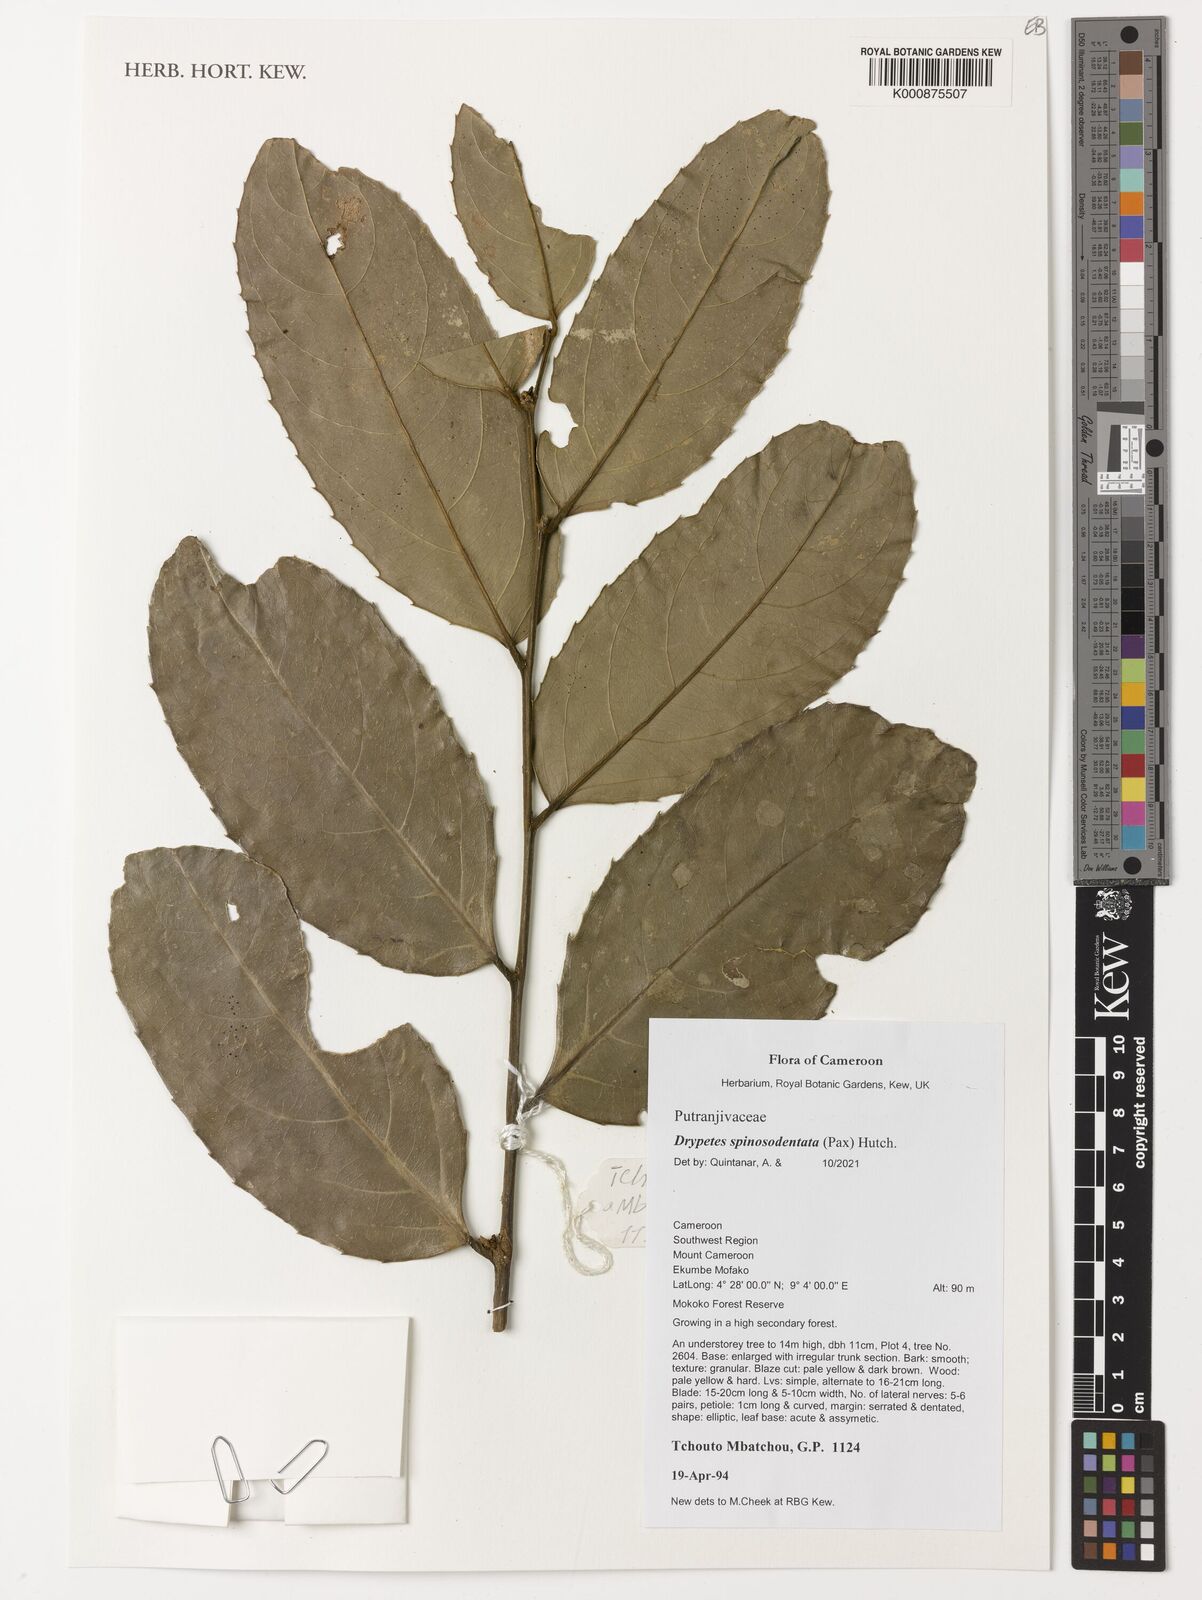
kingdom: Plantae
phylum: Tracheophyta
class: Magnoliopsida
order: Malpighiales
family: Putranjivaceae
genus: Drypetes
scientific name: Drypetes spinosodentata
